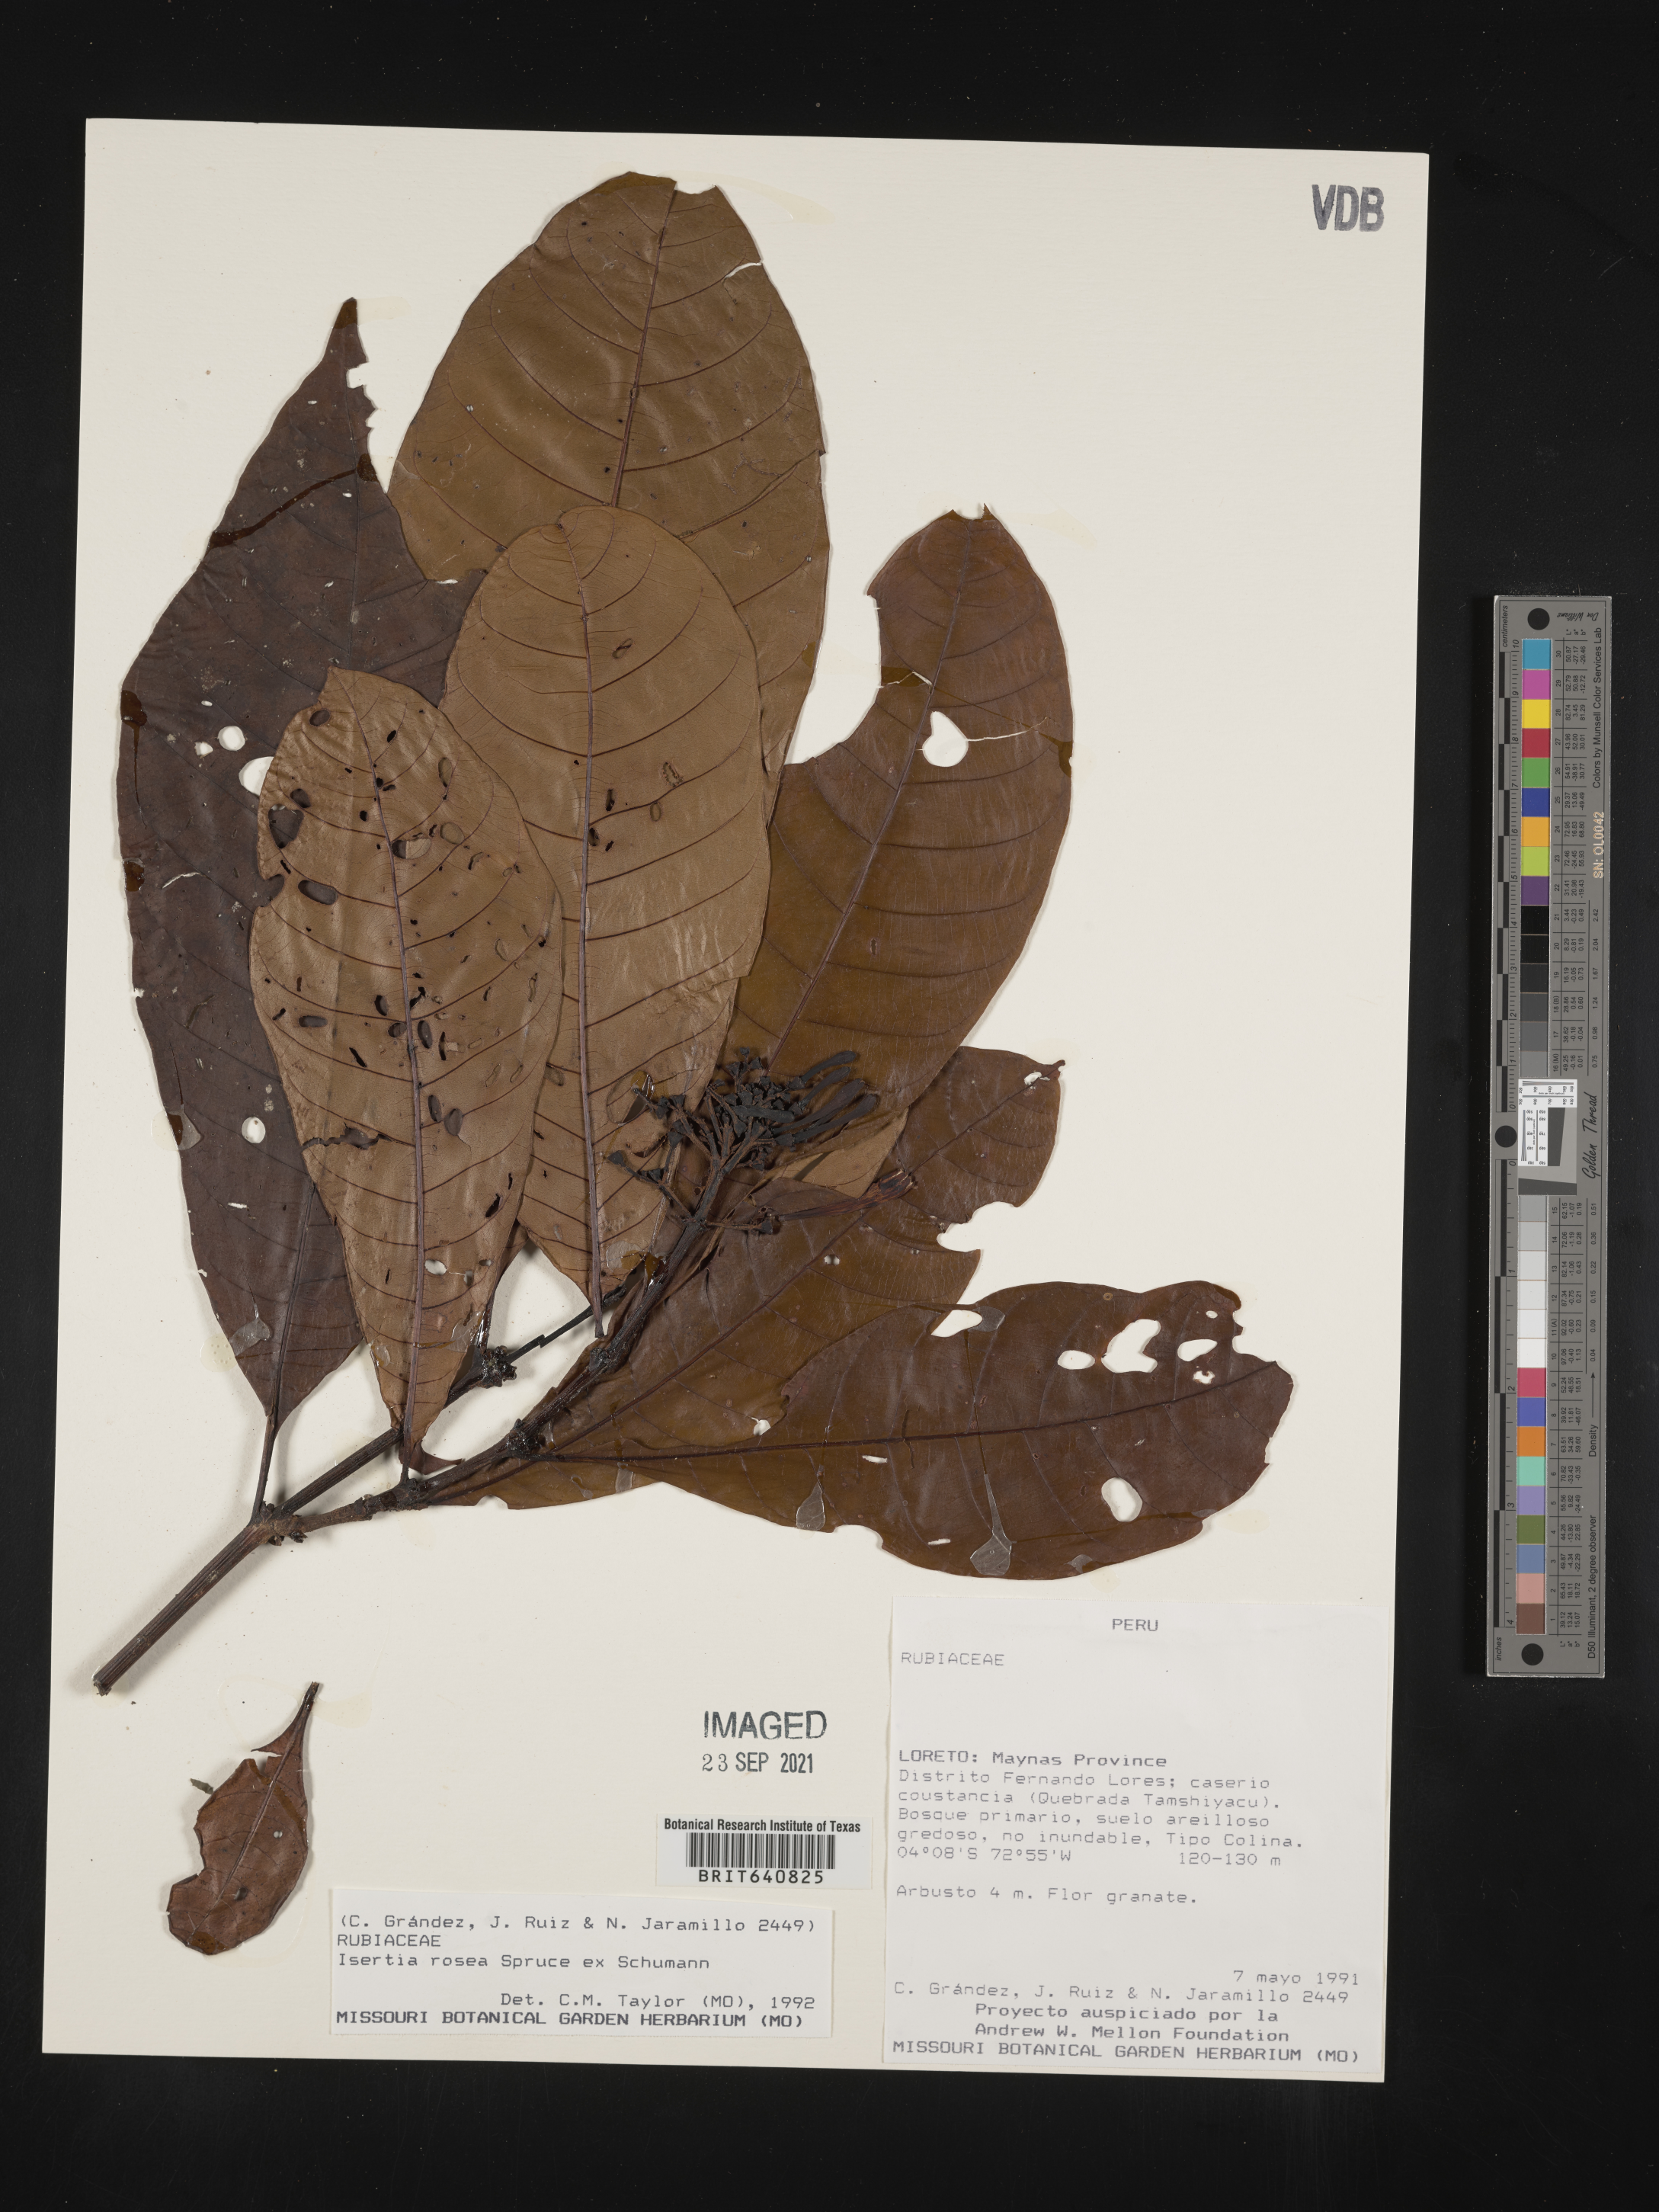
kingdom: Plantae
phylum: Tracheophyta
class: Magnoliopsida
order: Gentianales
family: Rubiaceae
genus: Isertia
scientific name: Isertia
